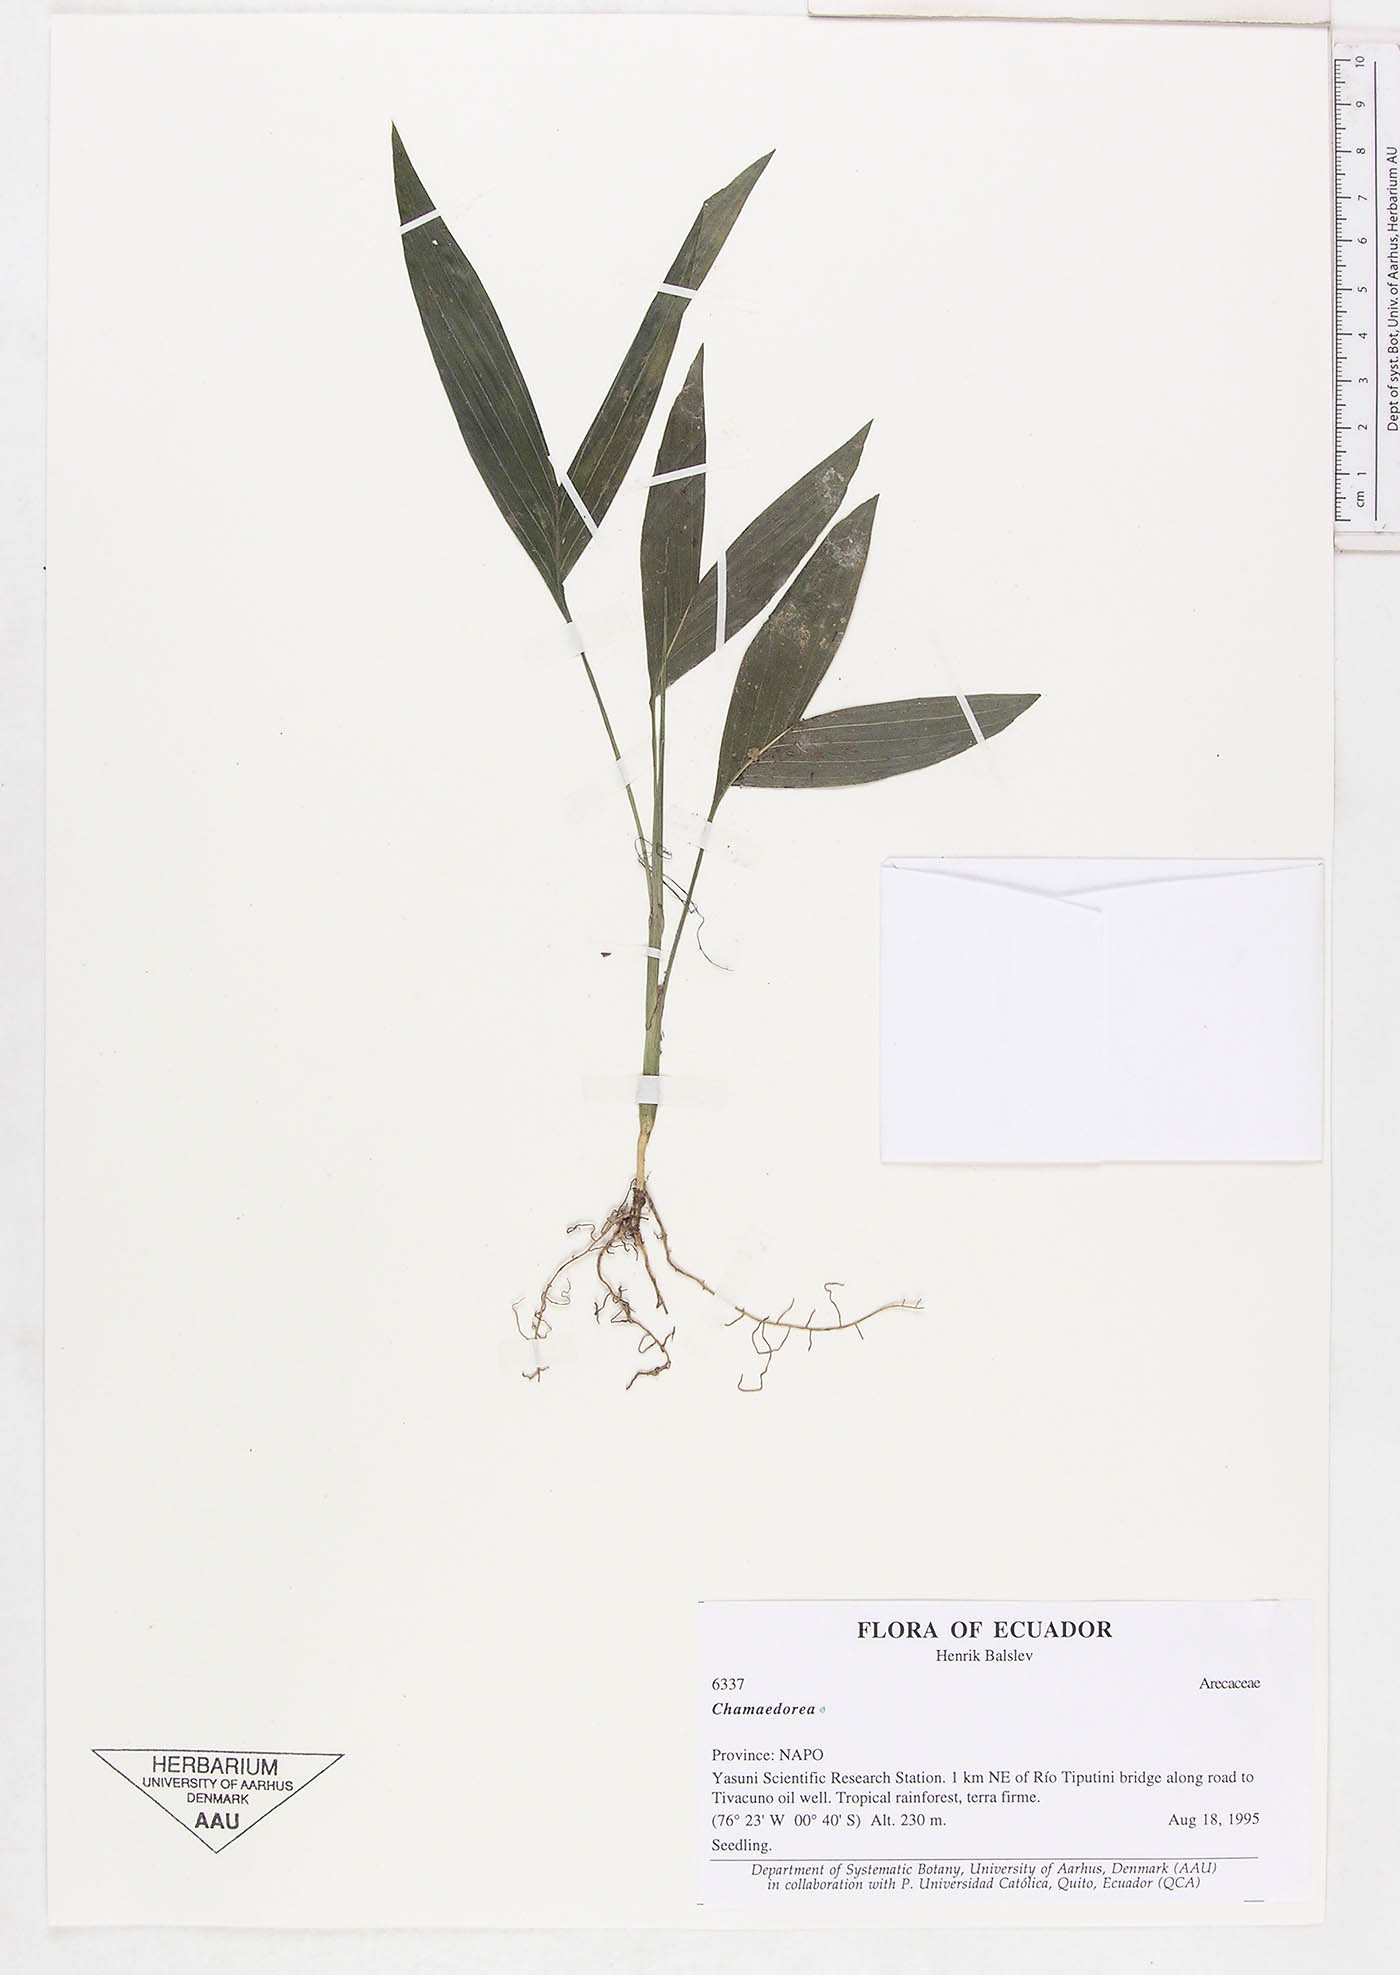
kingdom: Plantae
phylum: Tracheophyta
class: Liliopsida
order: Arecales
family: Arecaceae
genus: Chamaedorea
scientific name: Chamaedorea
